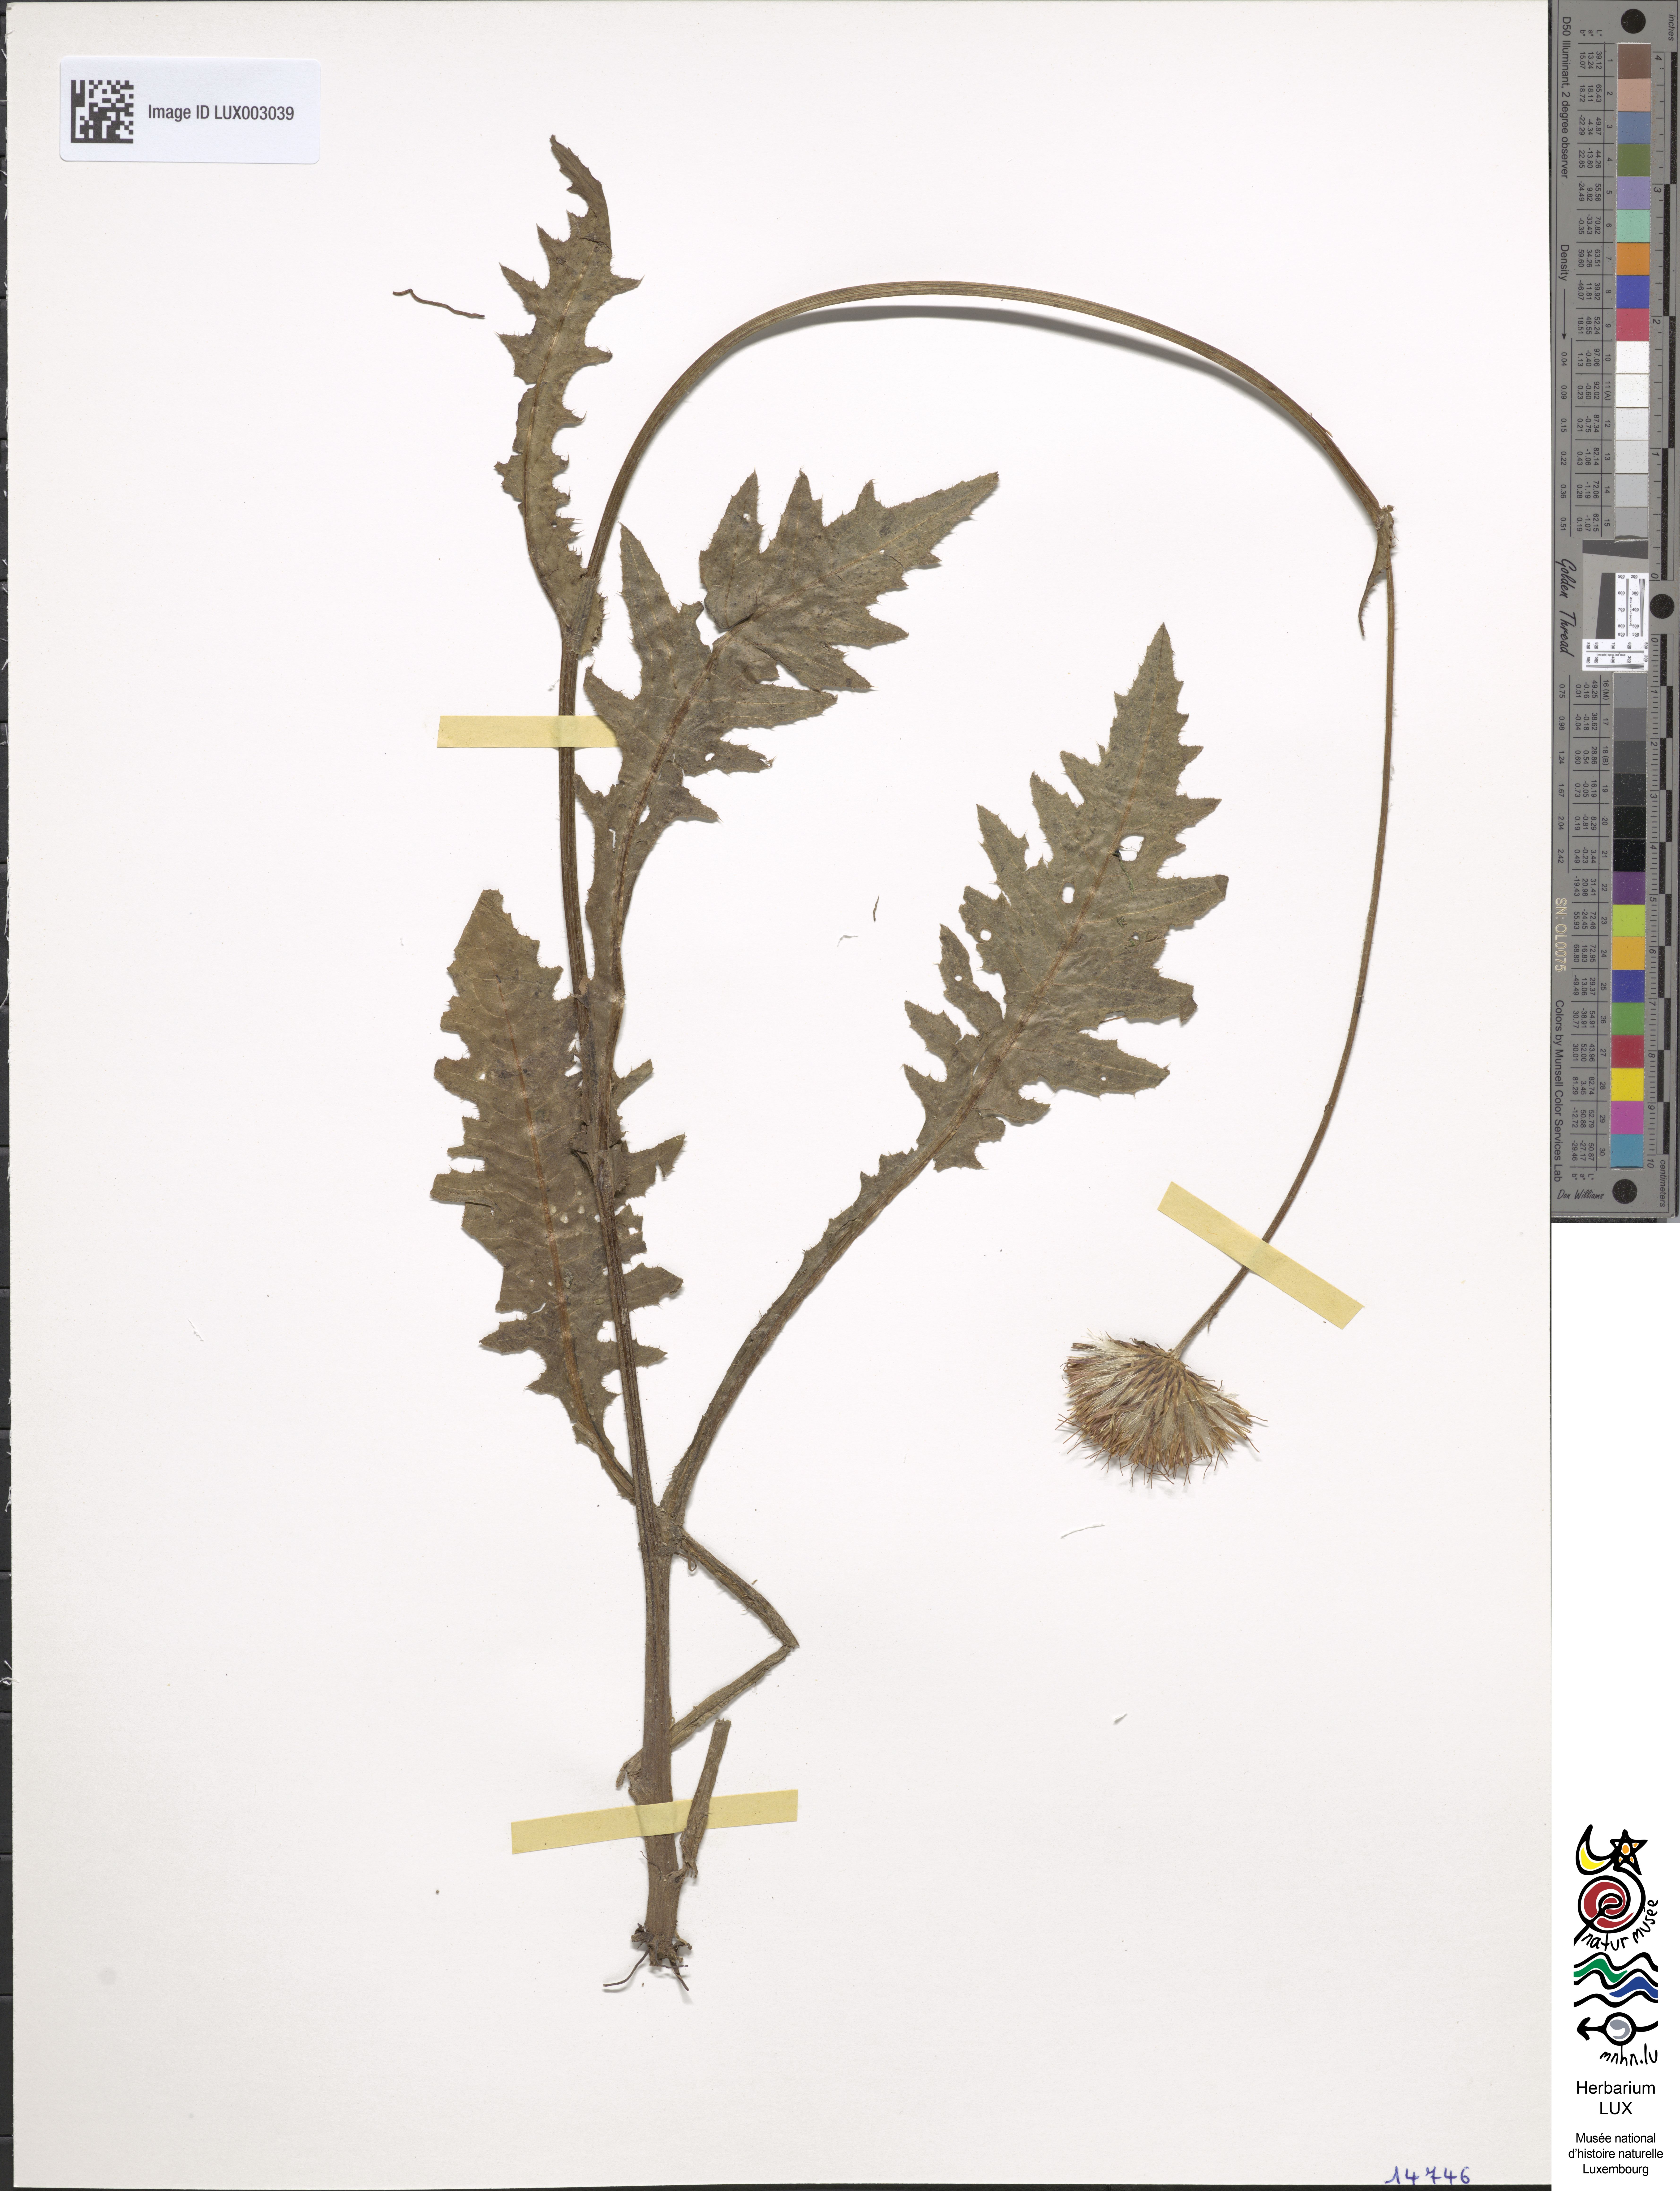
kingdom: Plantae
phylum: Tracheophyta
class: Magnoliopsida
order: Asterales
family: Asteraceae
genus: Cirsium
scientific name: Cirsium rivulare
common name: Brook thistle
